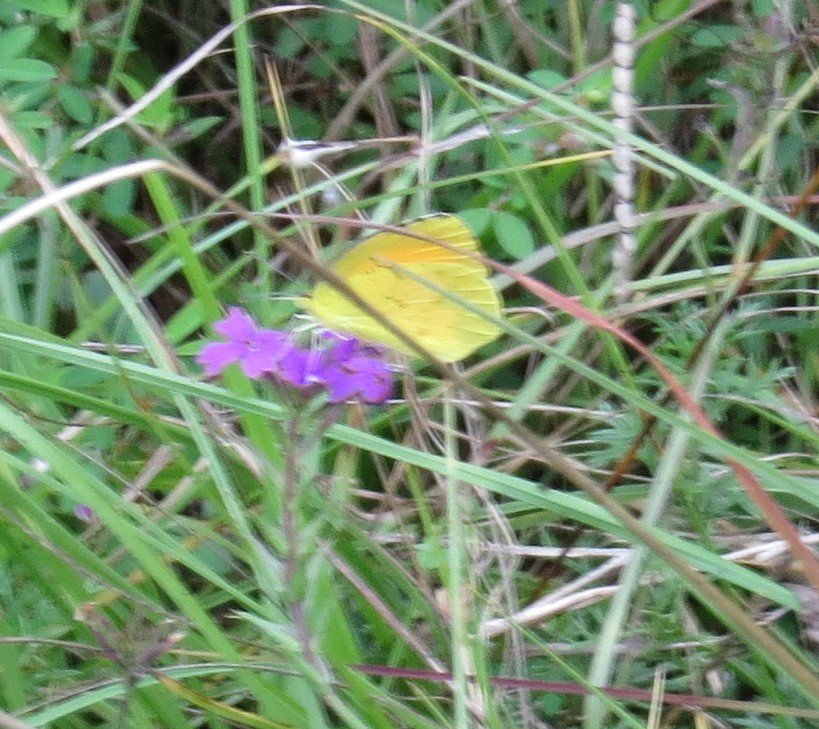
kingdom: Animalia
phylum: Arthropoda
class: Insecta
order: Lepidoptera
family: Pieridae
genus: Abaeis
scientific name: Abaeis nicippe
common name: Sleepy Orange
